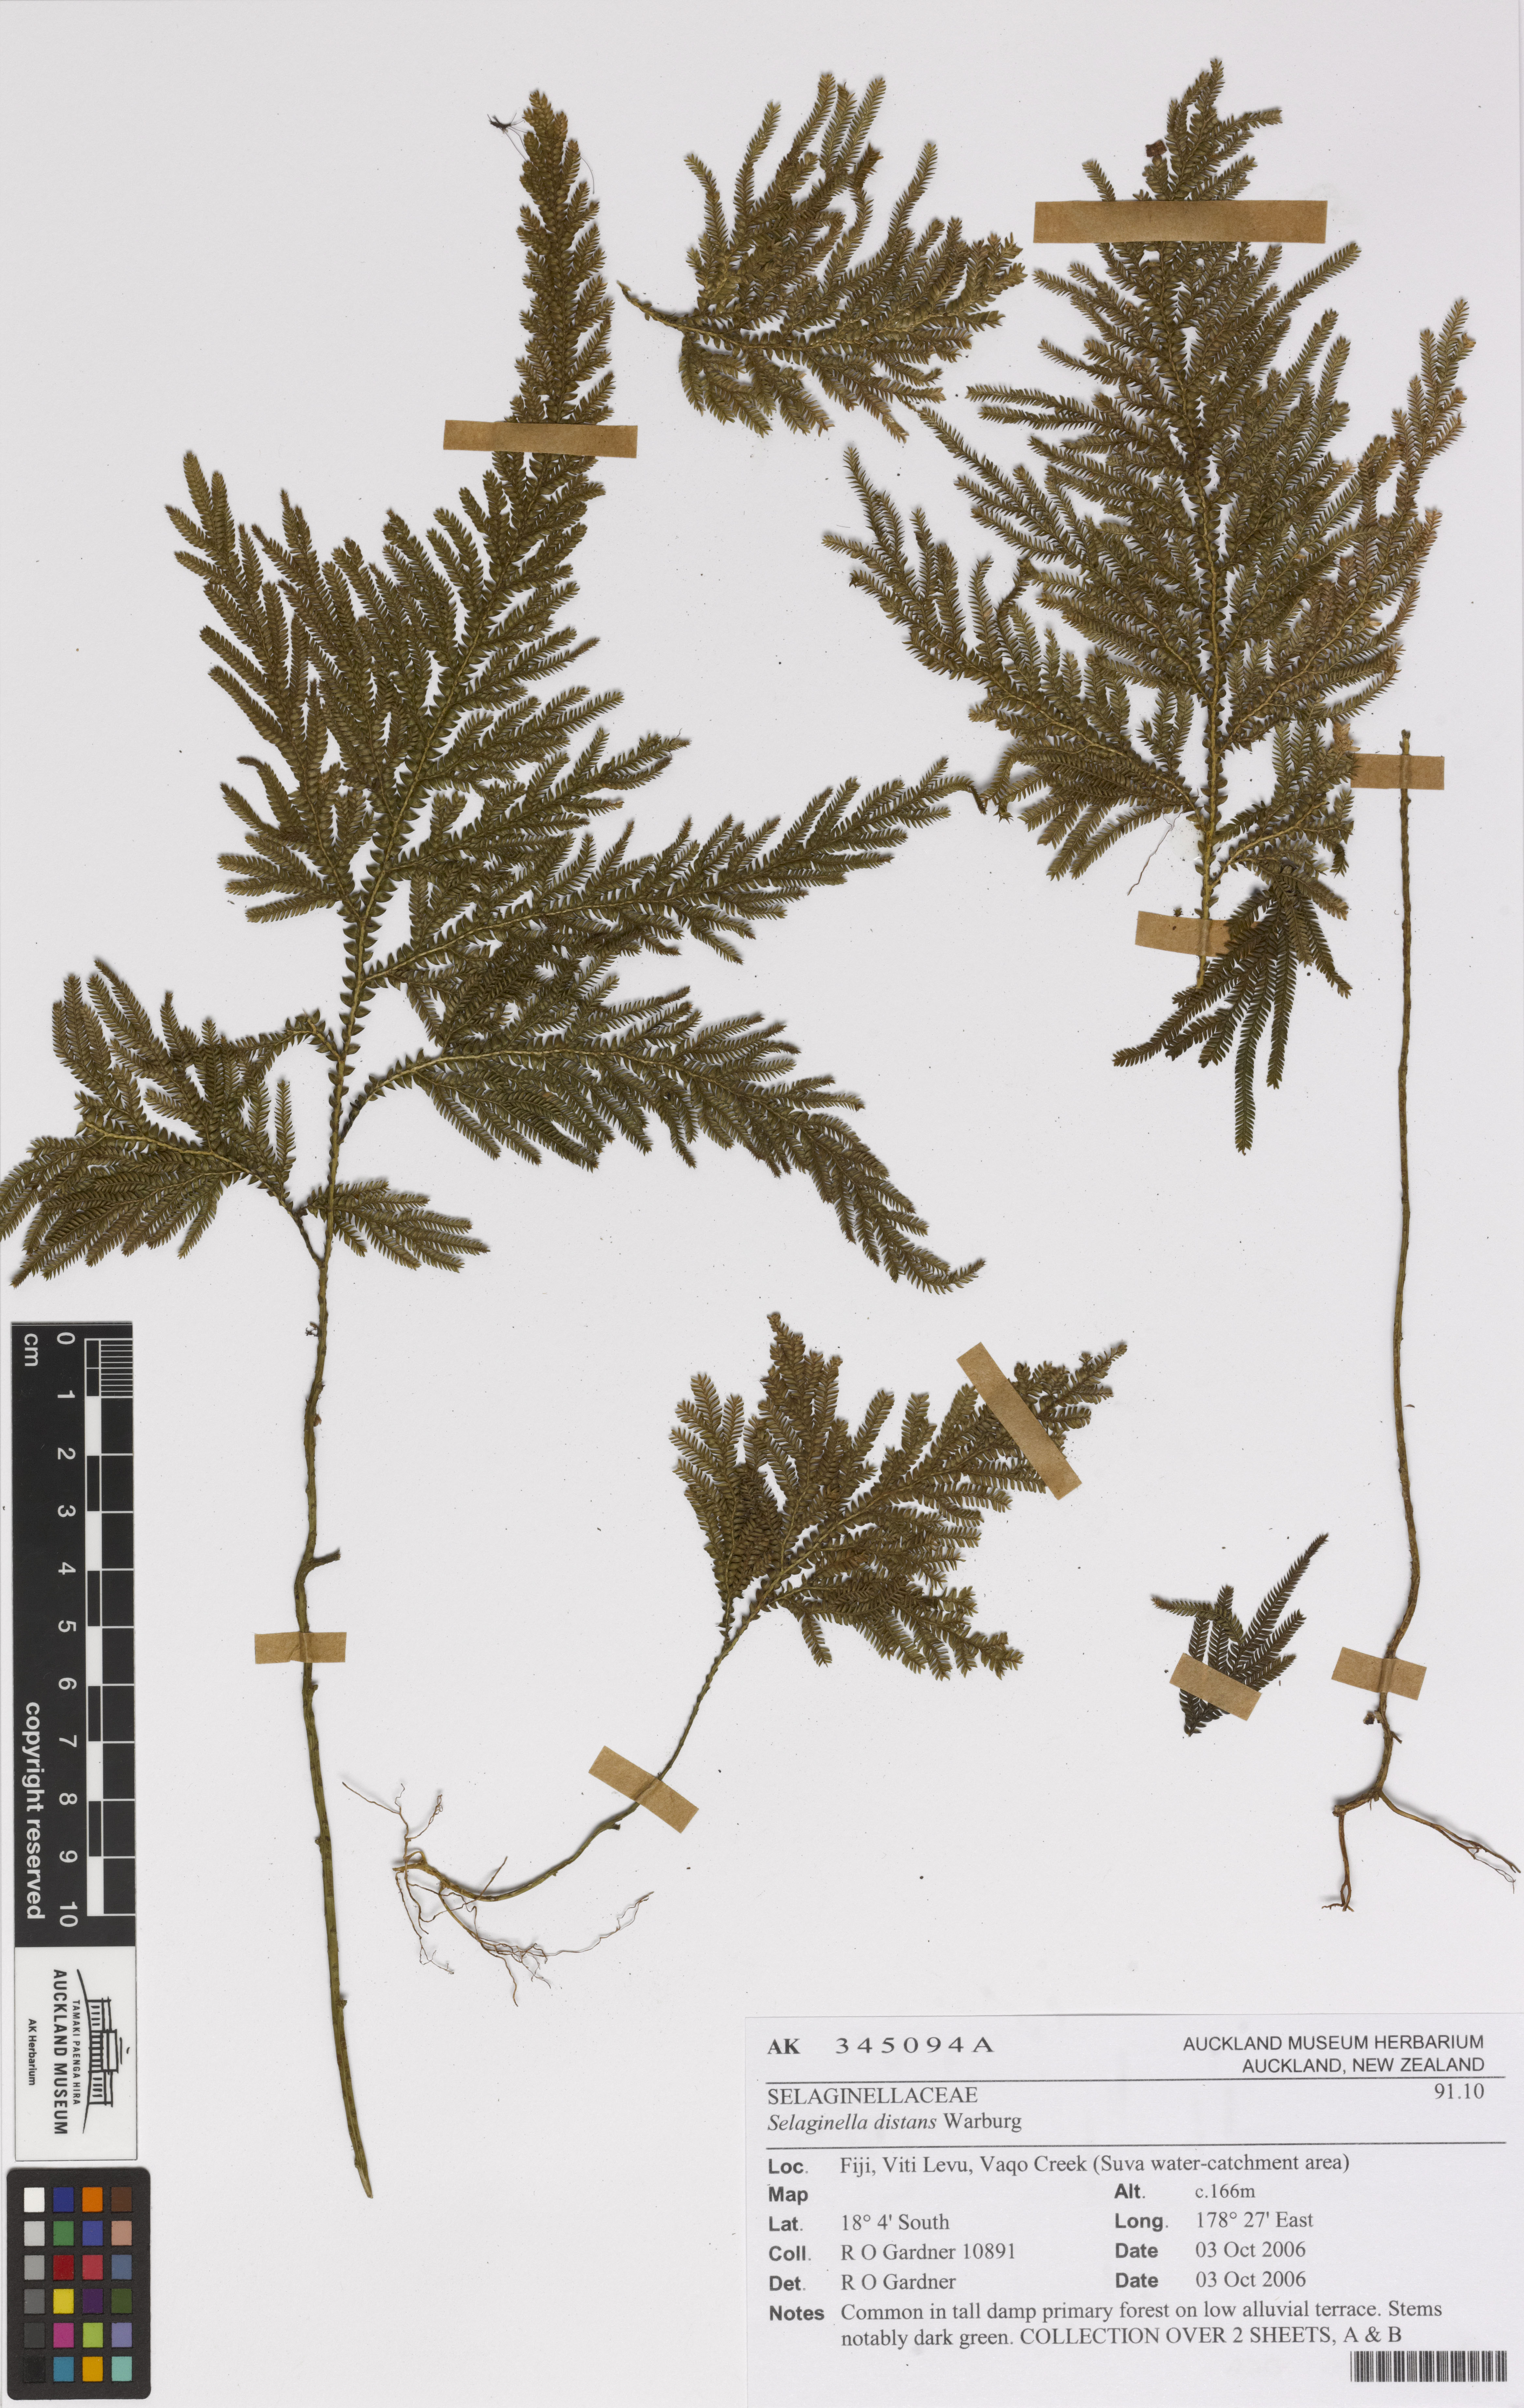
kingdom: Plantae
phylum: Tracheophyta
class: Lycopodiopsida
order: Selaginellales
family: Selaginellaceae
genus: Selaginella
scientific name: Selaginella distans
